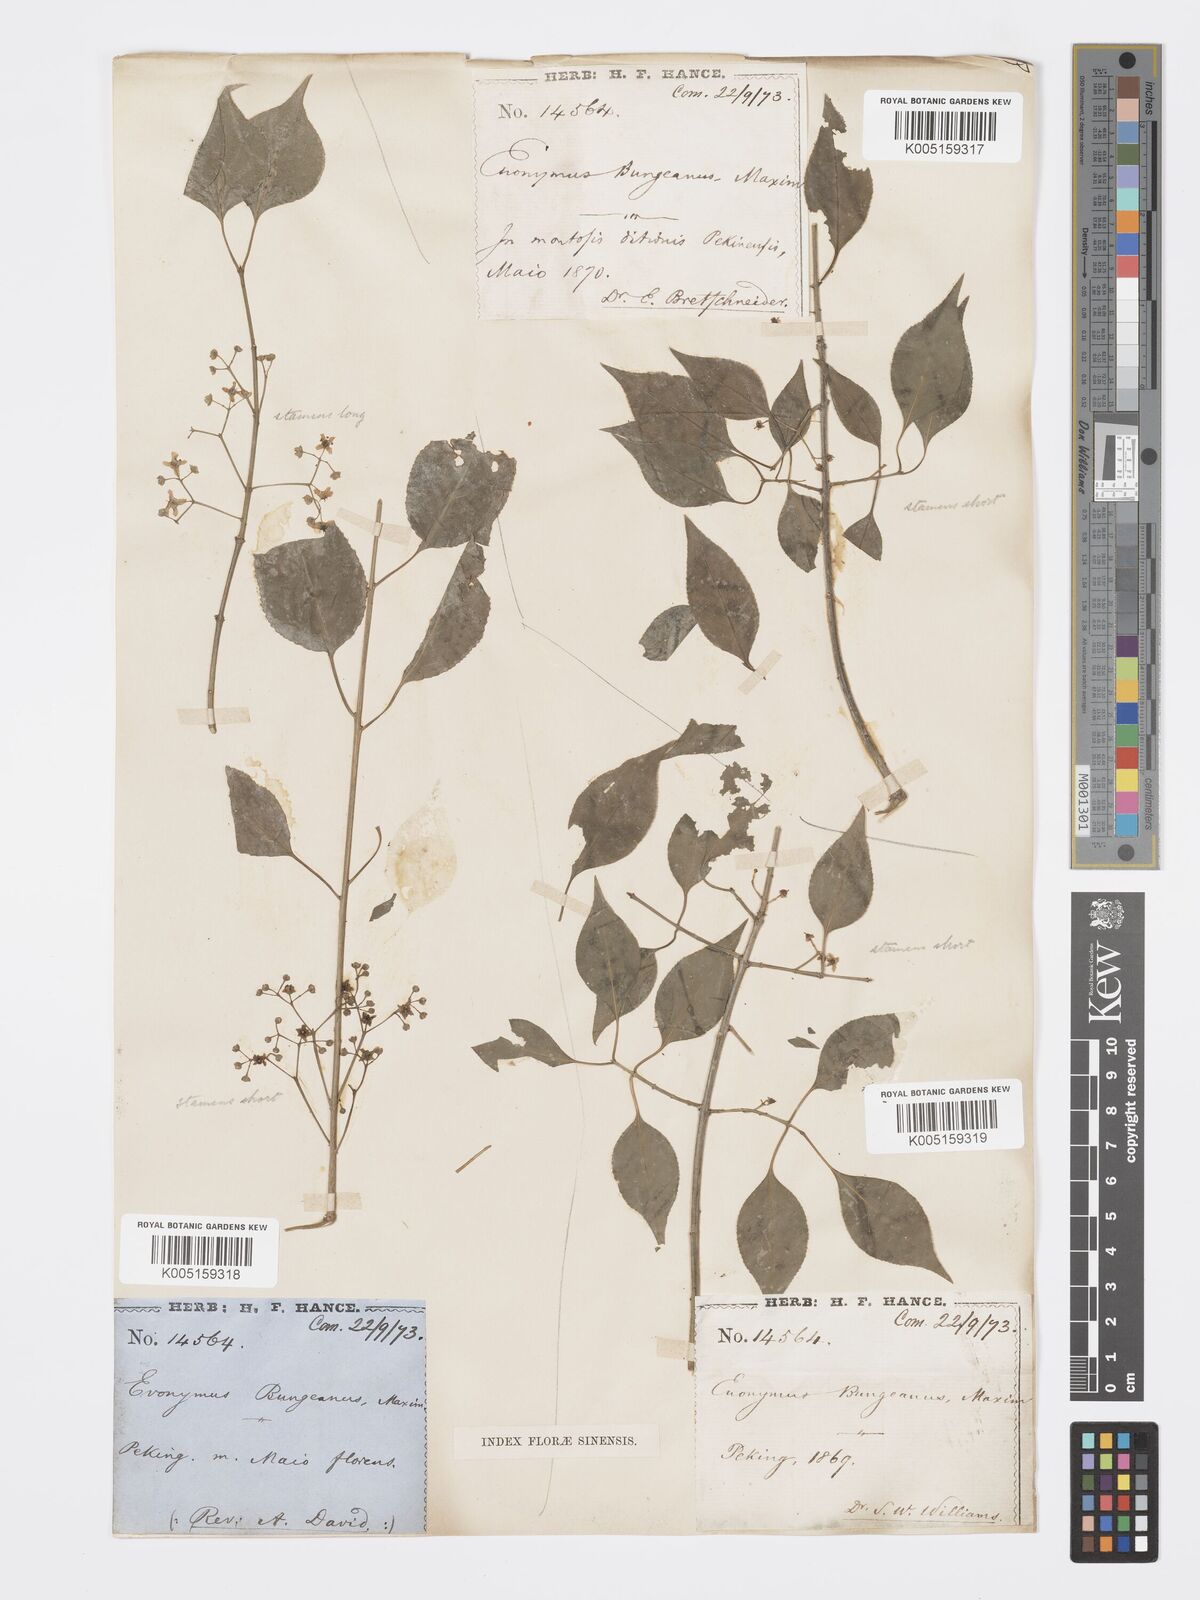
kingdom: Plantae
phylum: Tracheophyta
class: Magnoliopsida
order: Celastrales
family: Celastraceae
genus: Euonymus
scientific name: Euonymus maackii
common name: Hamilton's spindletree
